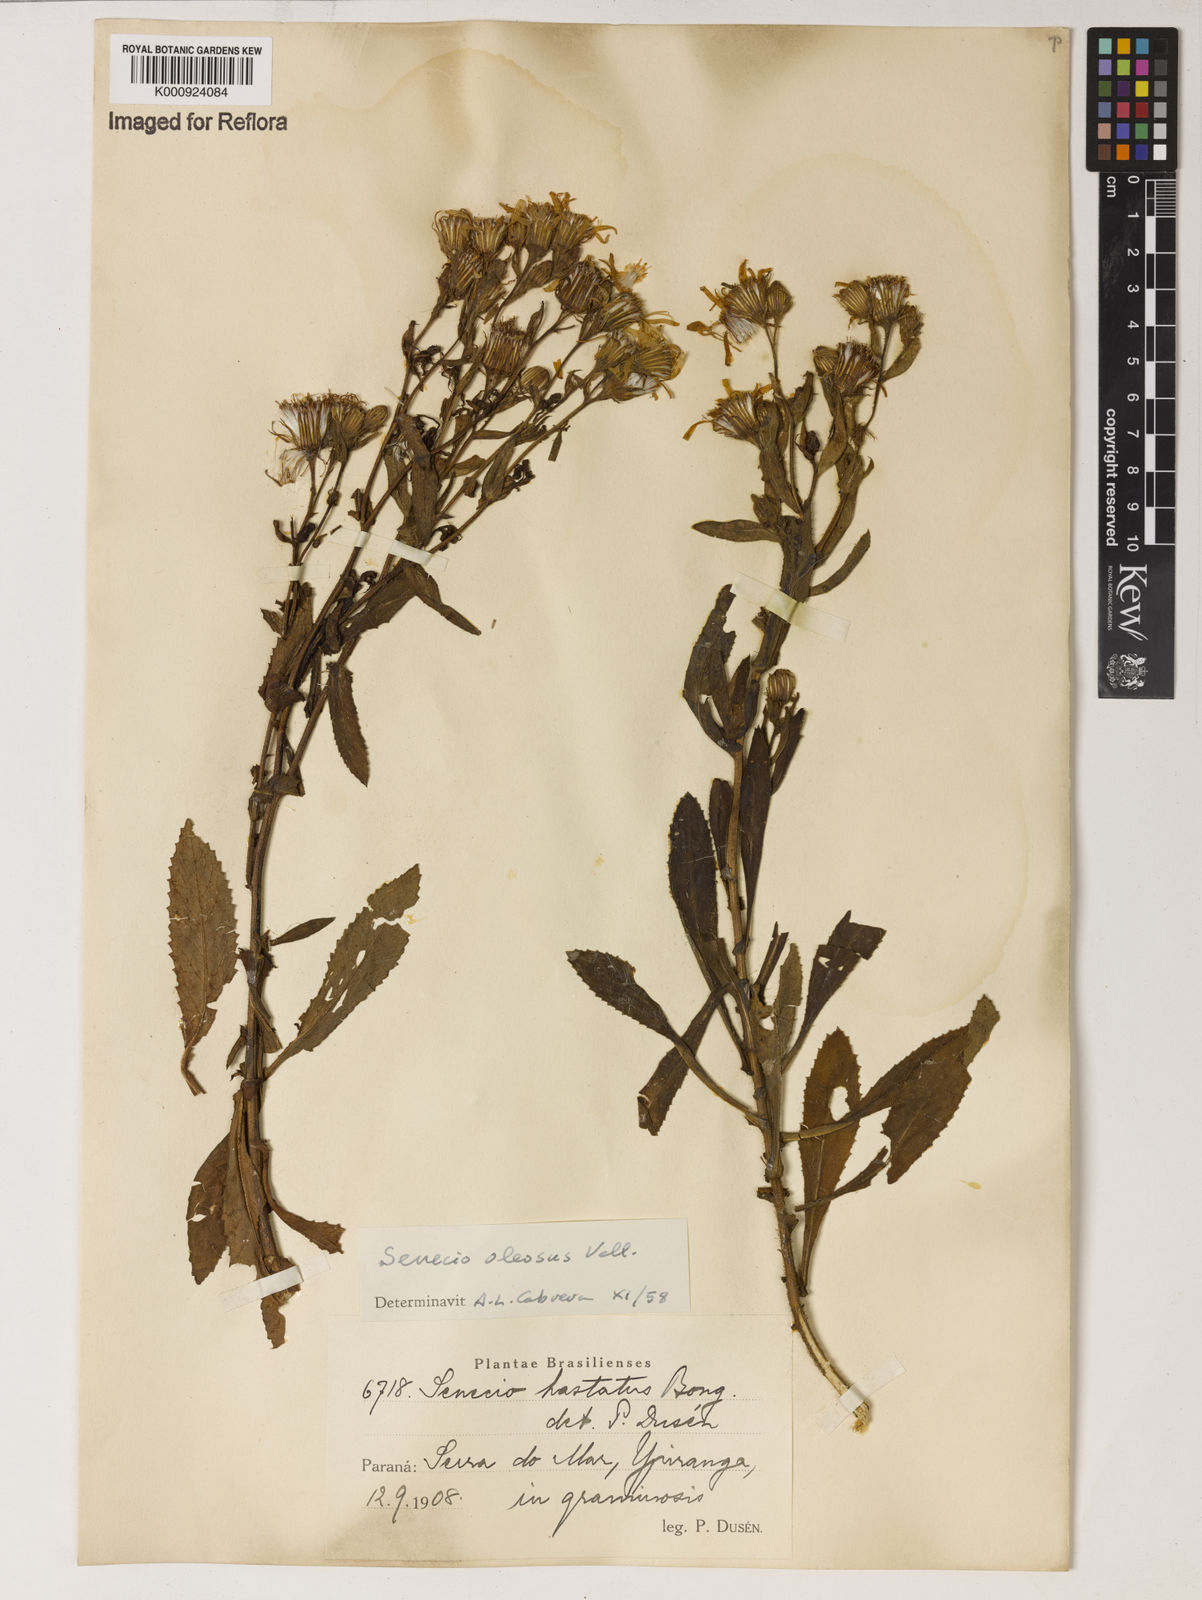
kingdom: Plantae
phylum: Tracheophyta
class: Magnoliopsida
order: Asterales
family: Asteraceae
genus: Senecio
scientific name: Senecio oleosus
